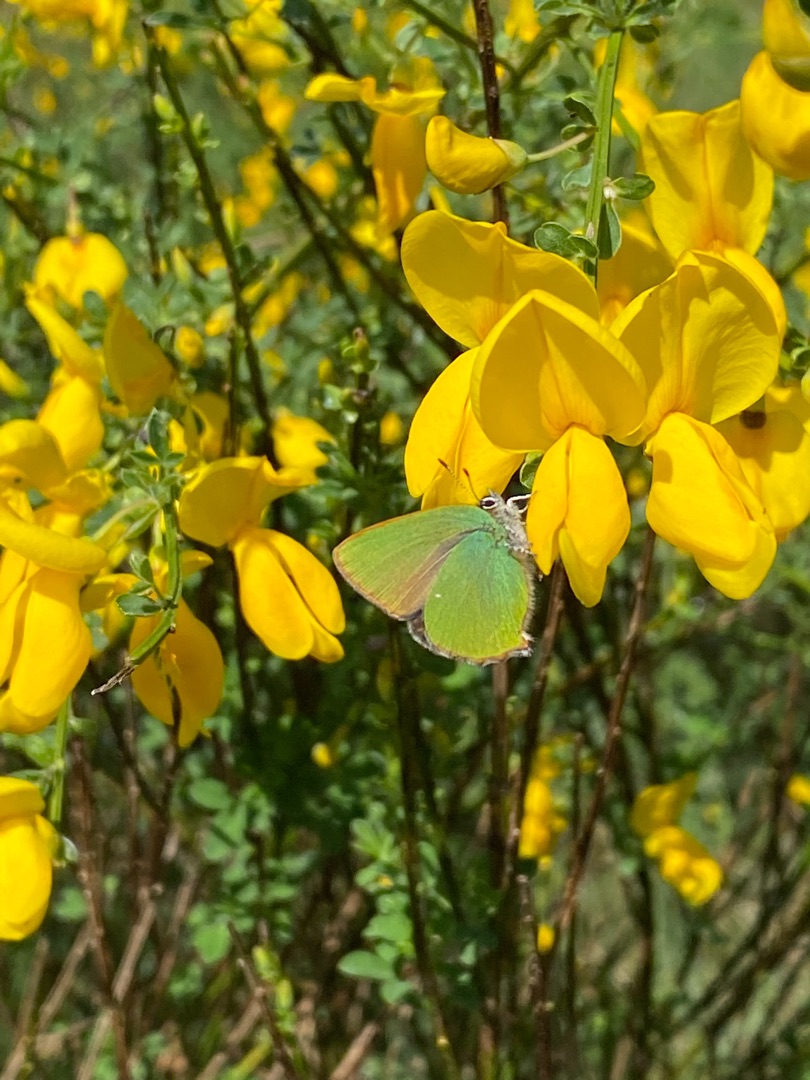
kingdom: Animalia
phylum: Arthropoda
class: Insecta
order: Lepidoptera
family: Lycaenidae
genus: Callophrys
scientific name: Callophrys rubi
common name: Grøn busksommerfugl
